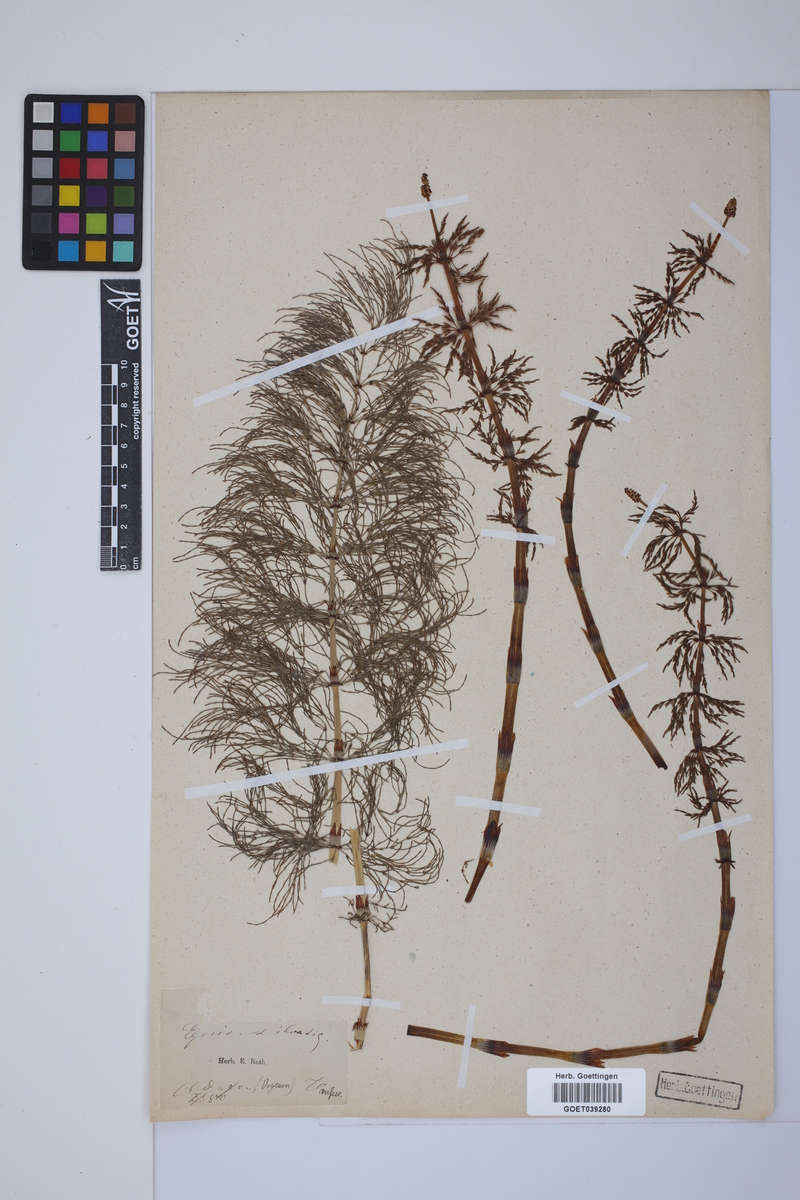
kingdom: Plantae
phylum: Tracheophyta
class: Polypodiopsida
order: Equisetales
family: Equisetaceae
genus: Equisetum
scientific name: Equisetum sylvaticum
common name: Wood horsetail
